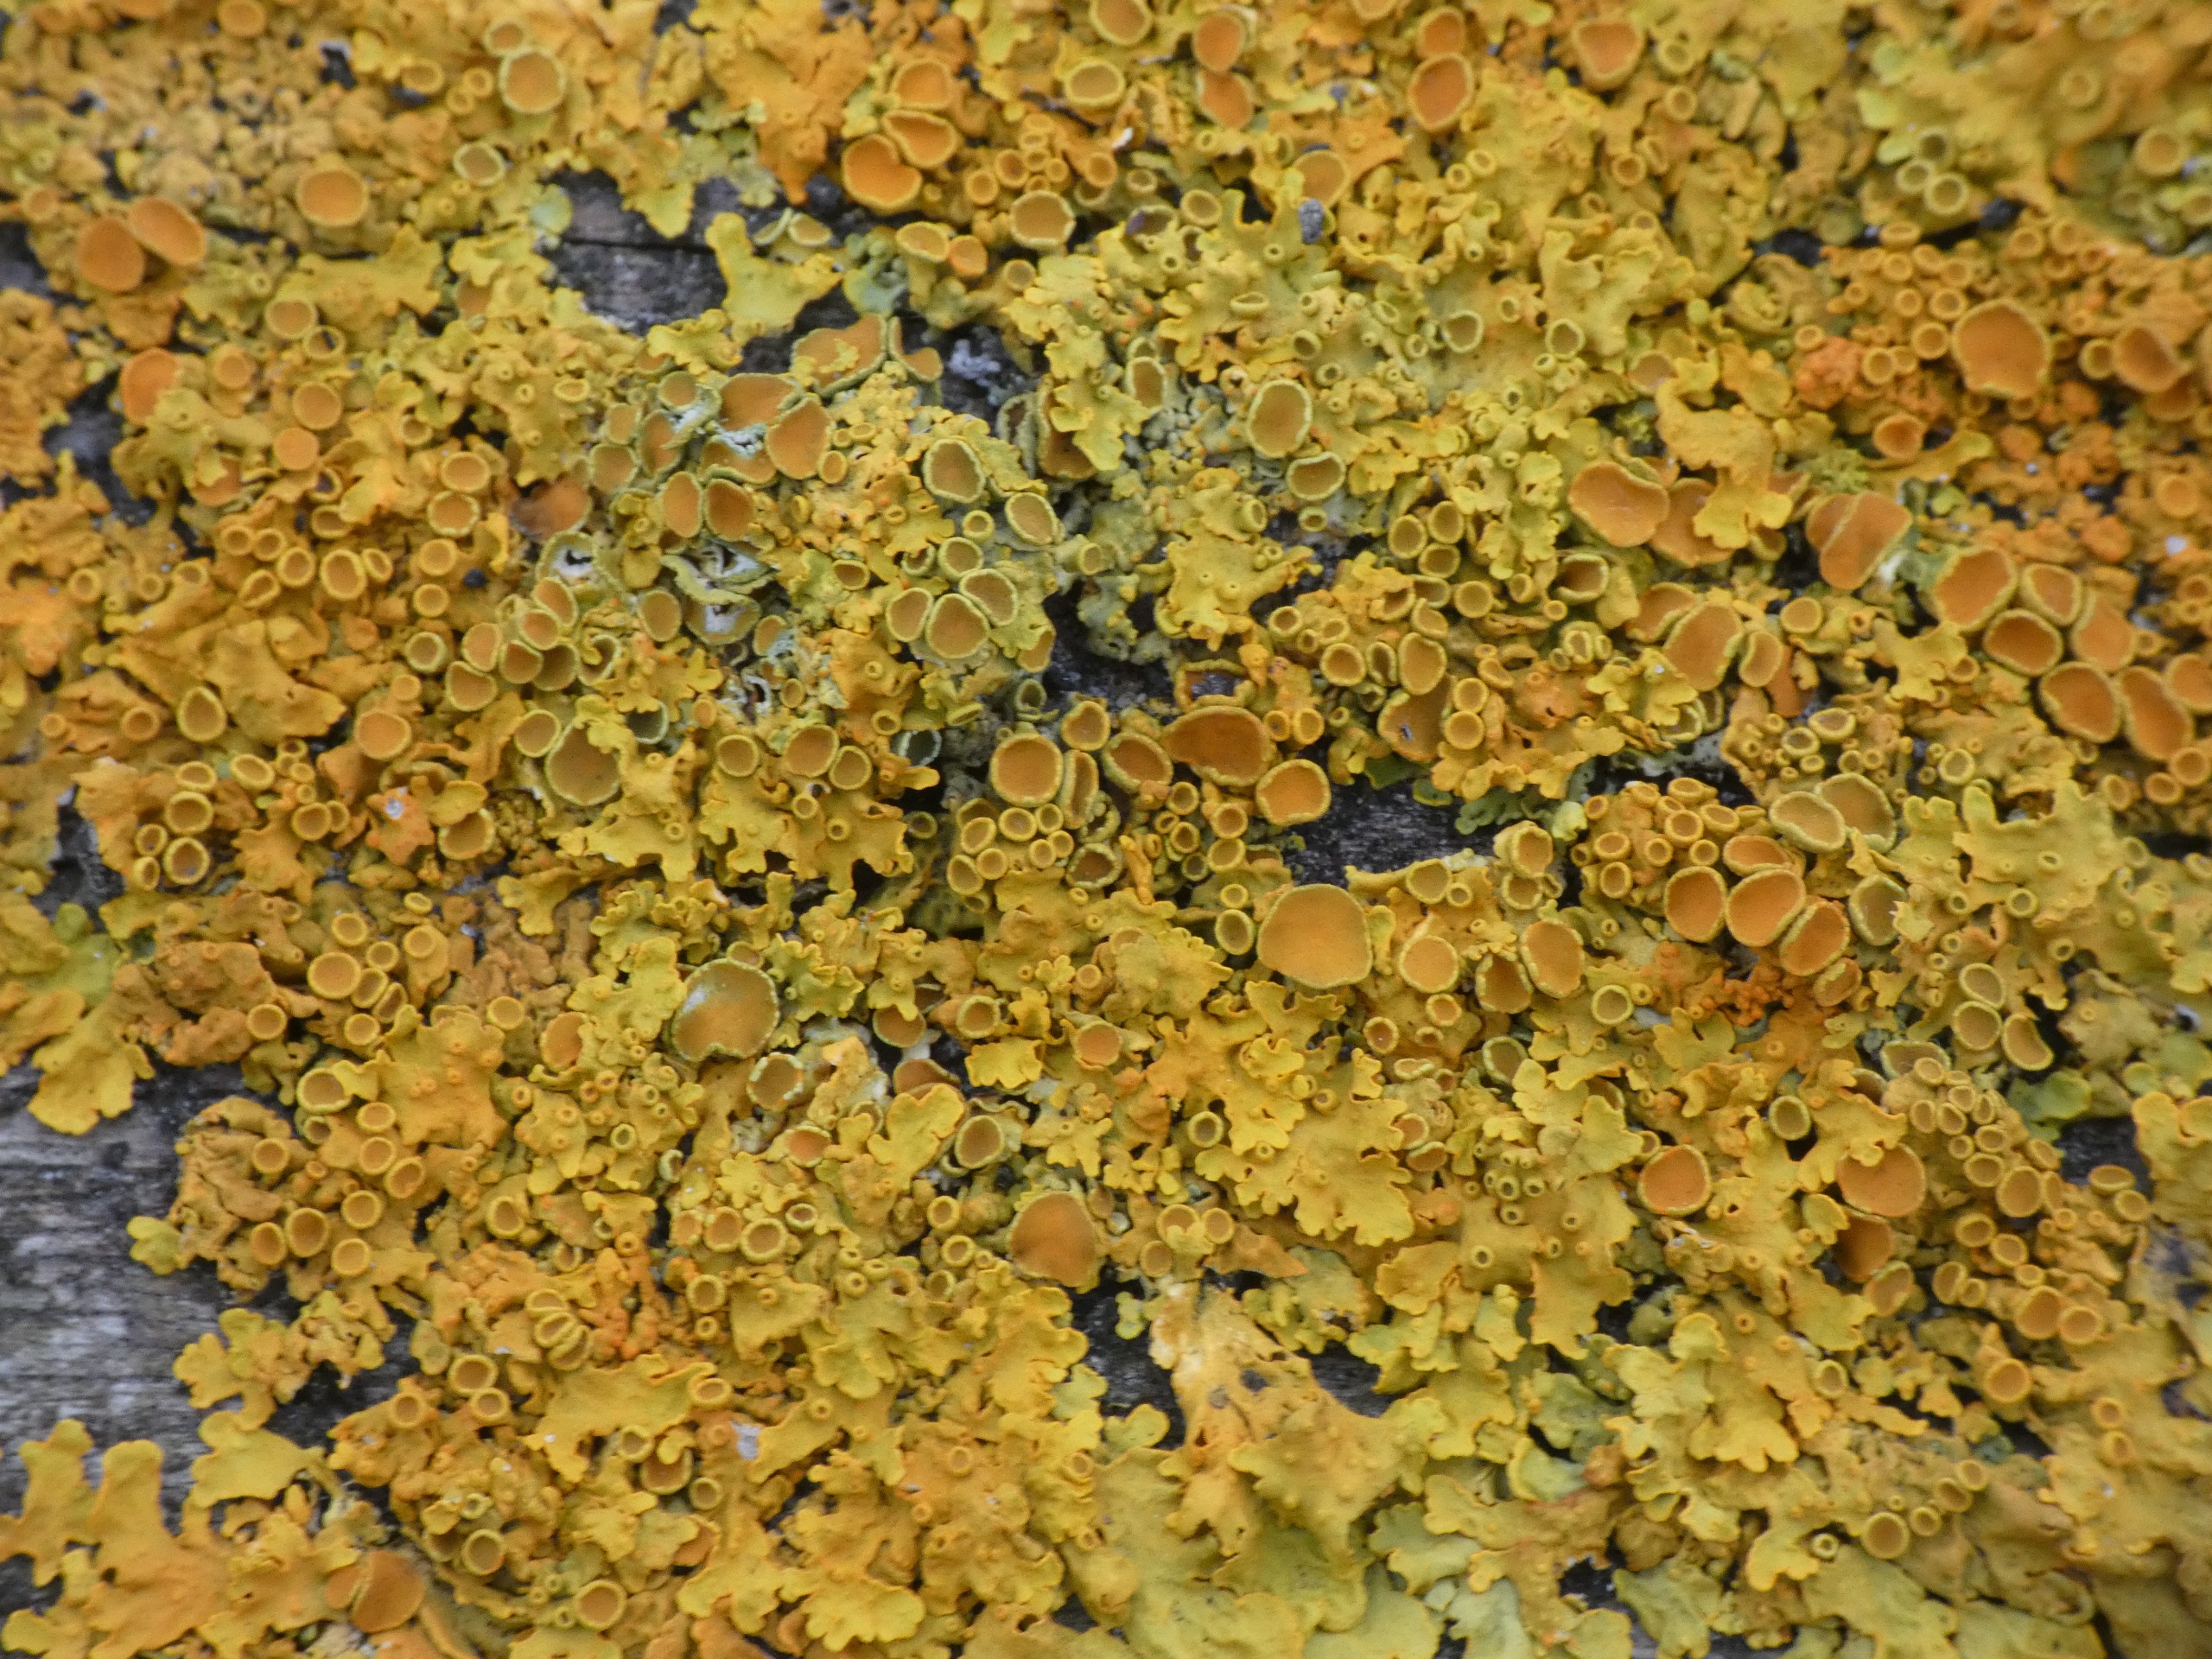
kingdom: Fungi
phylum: Ascomycota
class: Lecanoromycetes
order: Teloschistales
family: Teloschistaceae
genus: Xanthoria
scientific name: Xanthoria parietina
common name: Almindelig væggelav
